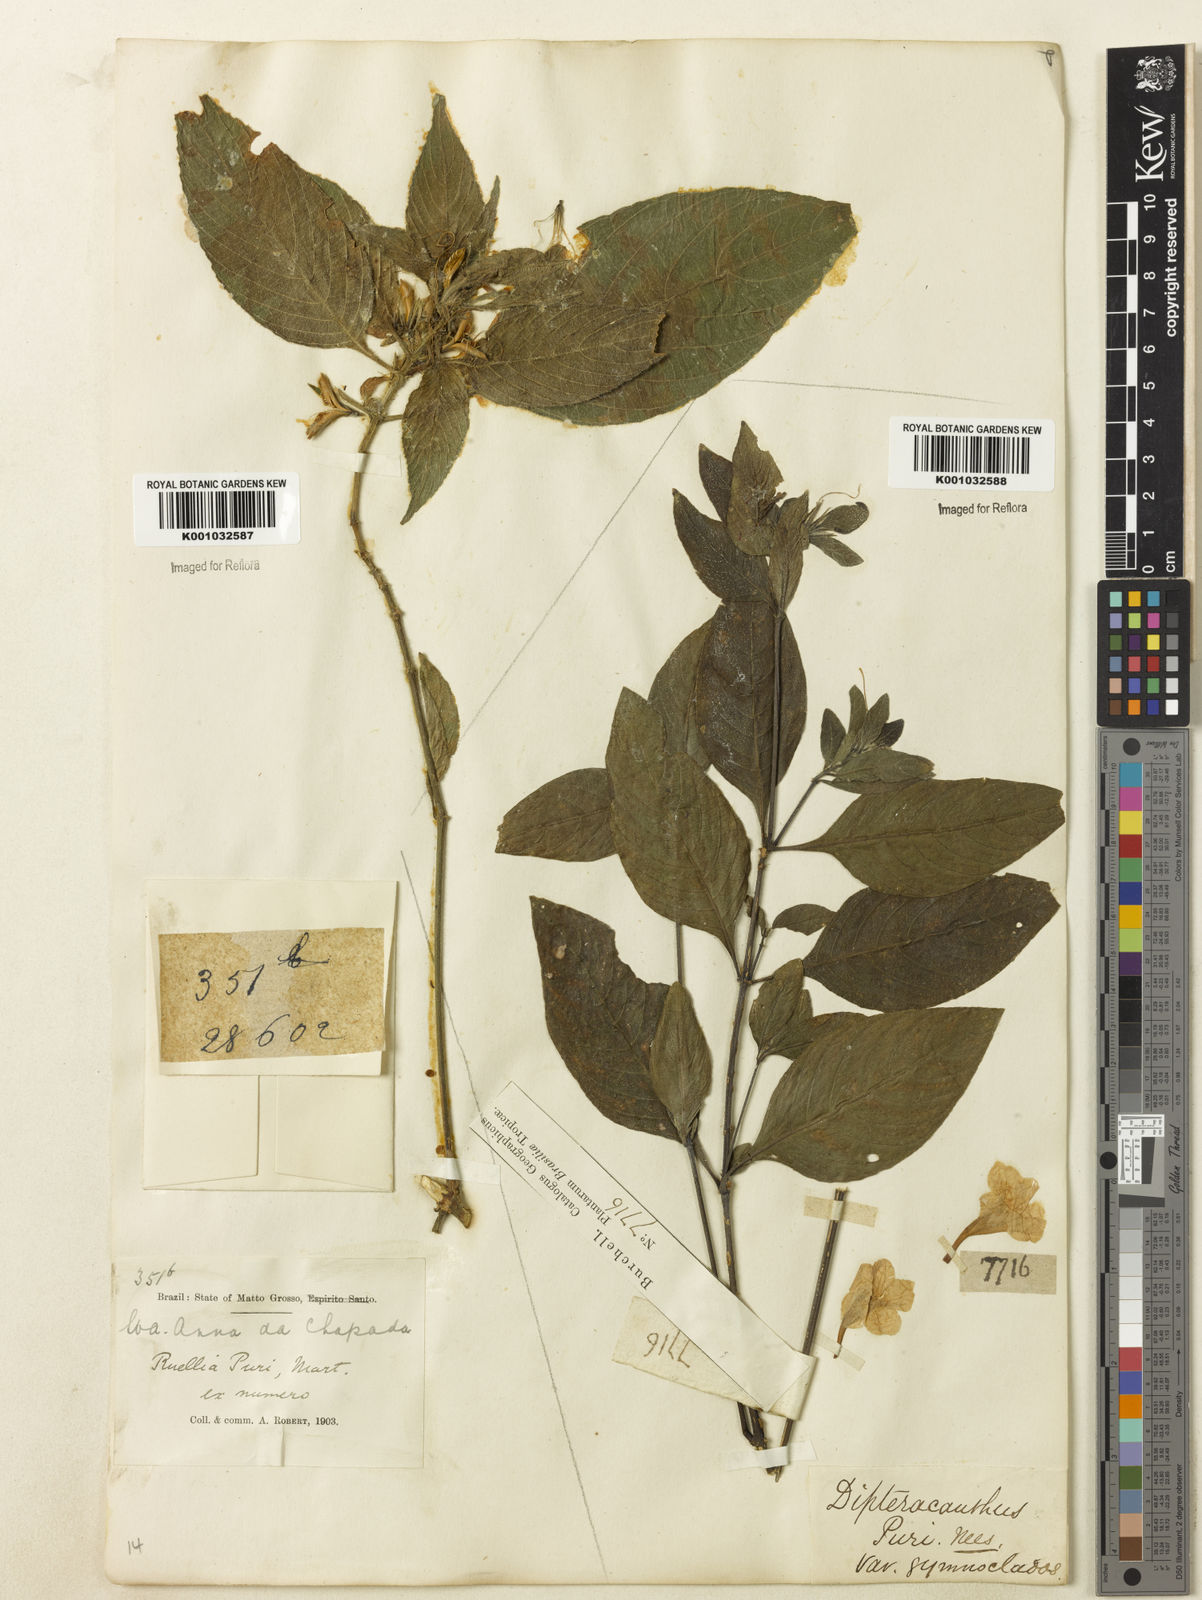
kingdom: Plantae
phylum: Tracheophyta
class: Magnoliopsida
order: Lamiales
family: Acanthaceae
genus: Ruellia
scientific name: Ruellia jussieuoides
